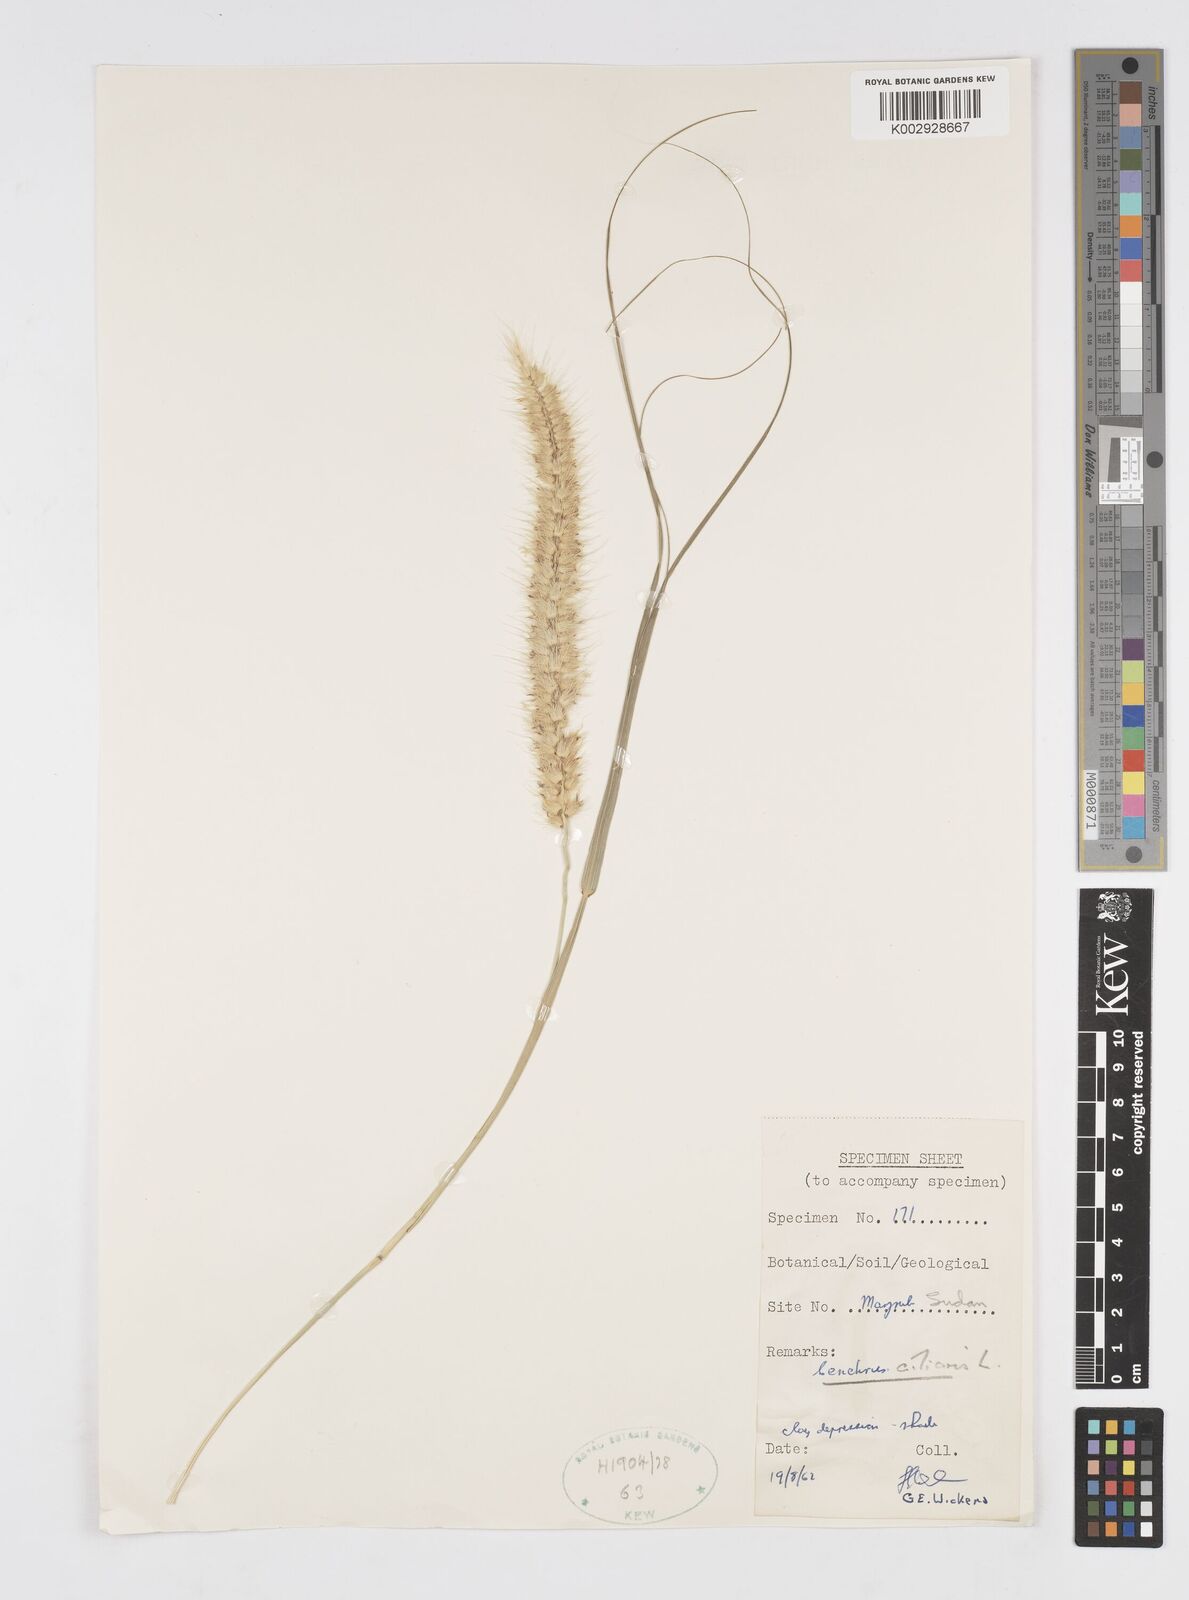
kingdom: Plantae
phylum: Tracheophyta
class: Liliopsida
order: Poales
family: Poaceae
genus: Cenchrus
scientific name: Cenchrus ciliaris
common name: Buffelgrass
